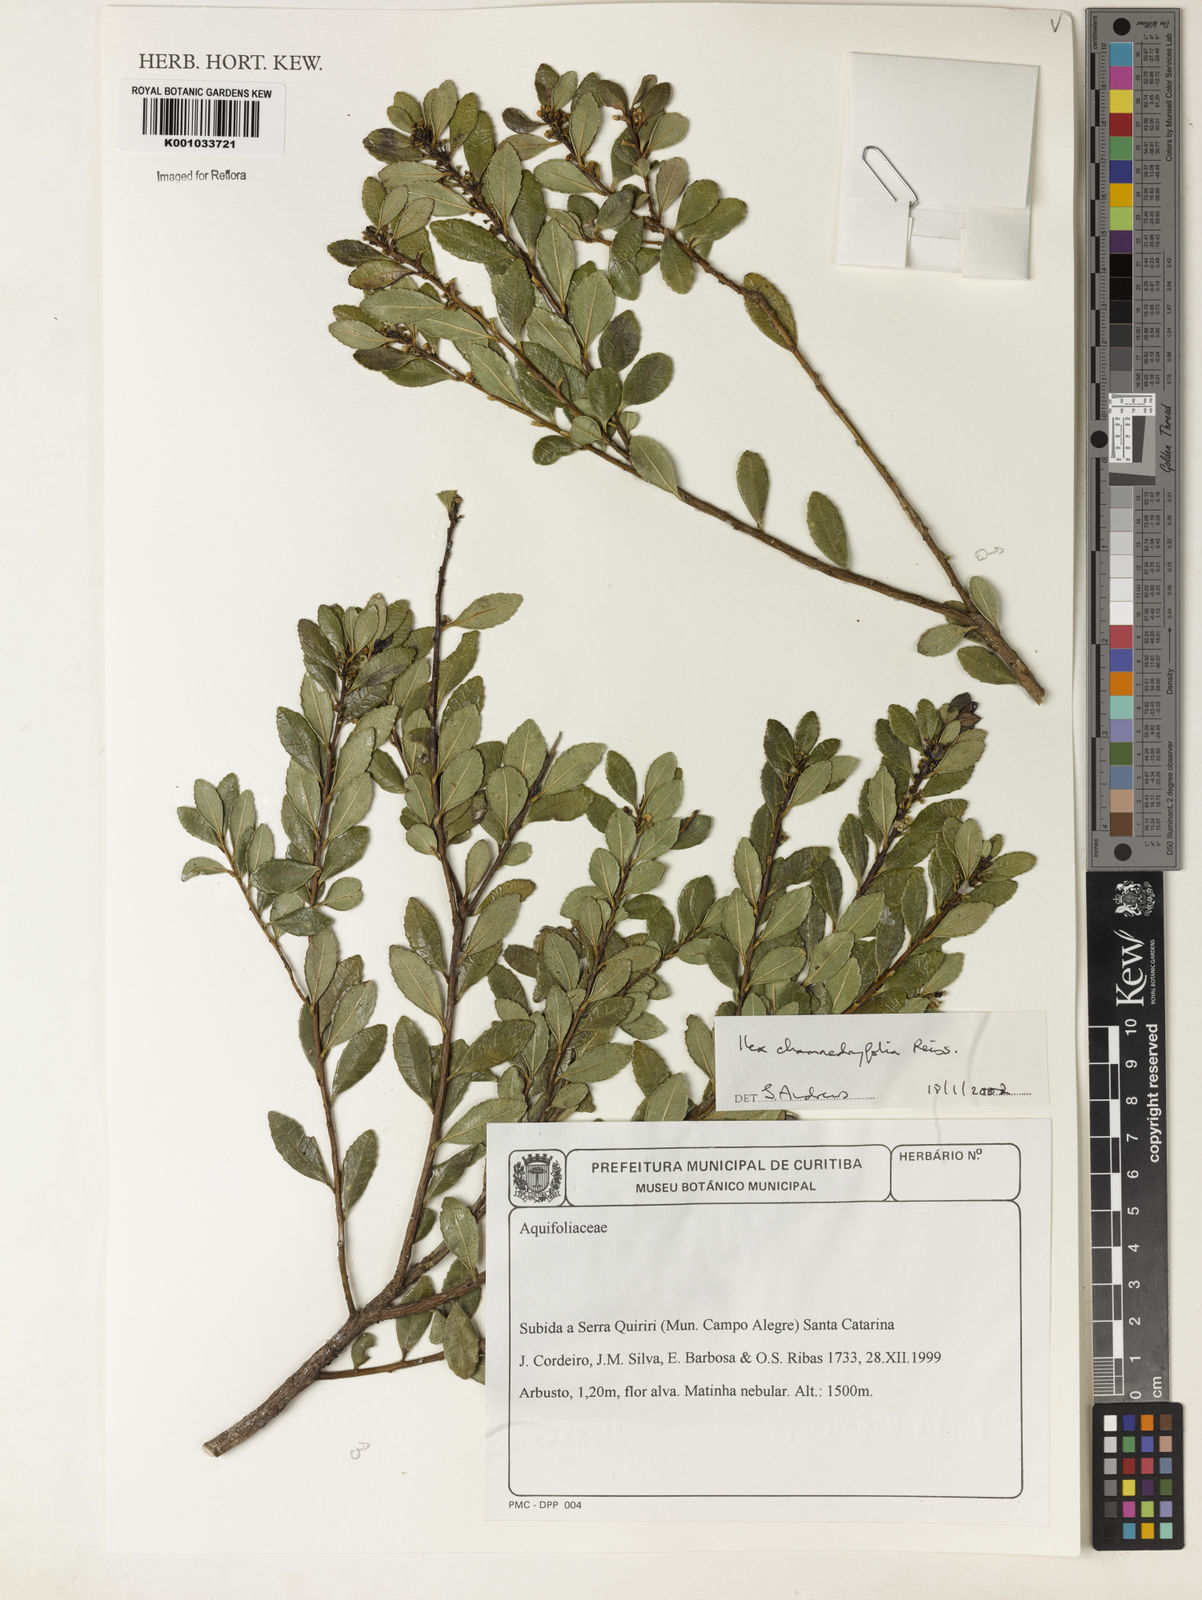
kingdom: Plantae
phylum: Tracheophyta
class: Magnoliopsida
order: Aquifoliales
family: Aquifoliaceae
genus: Ilex
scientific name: Ilex chamaedryfolia
